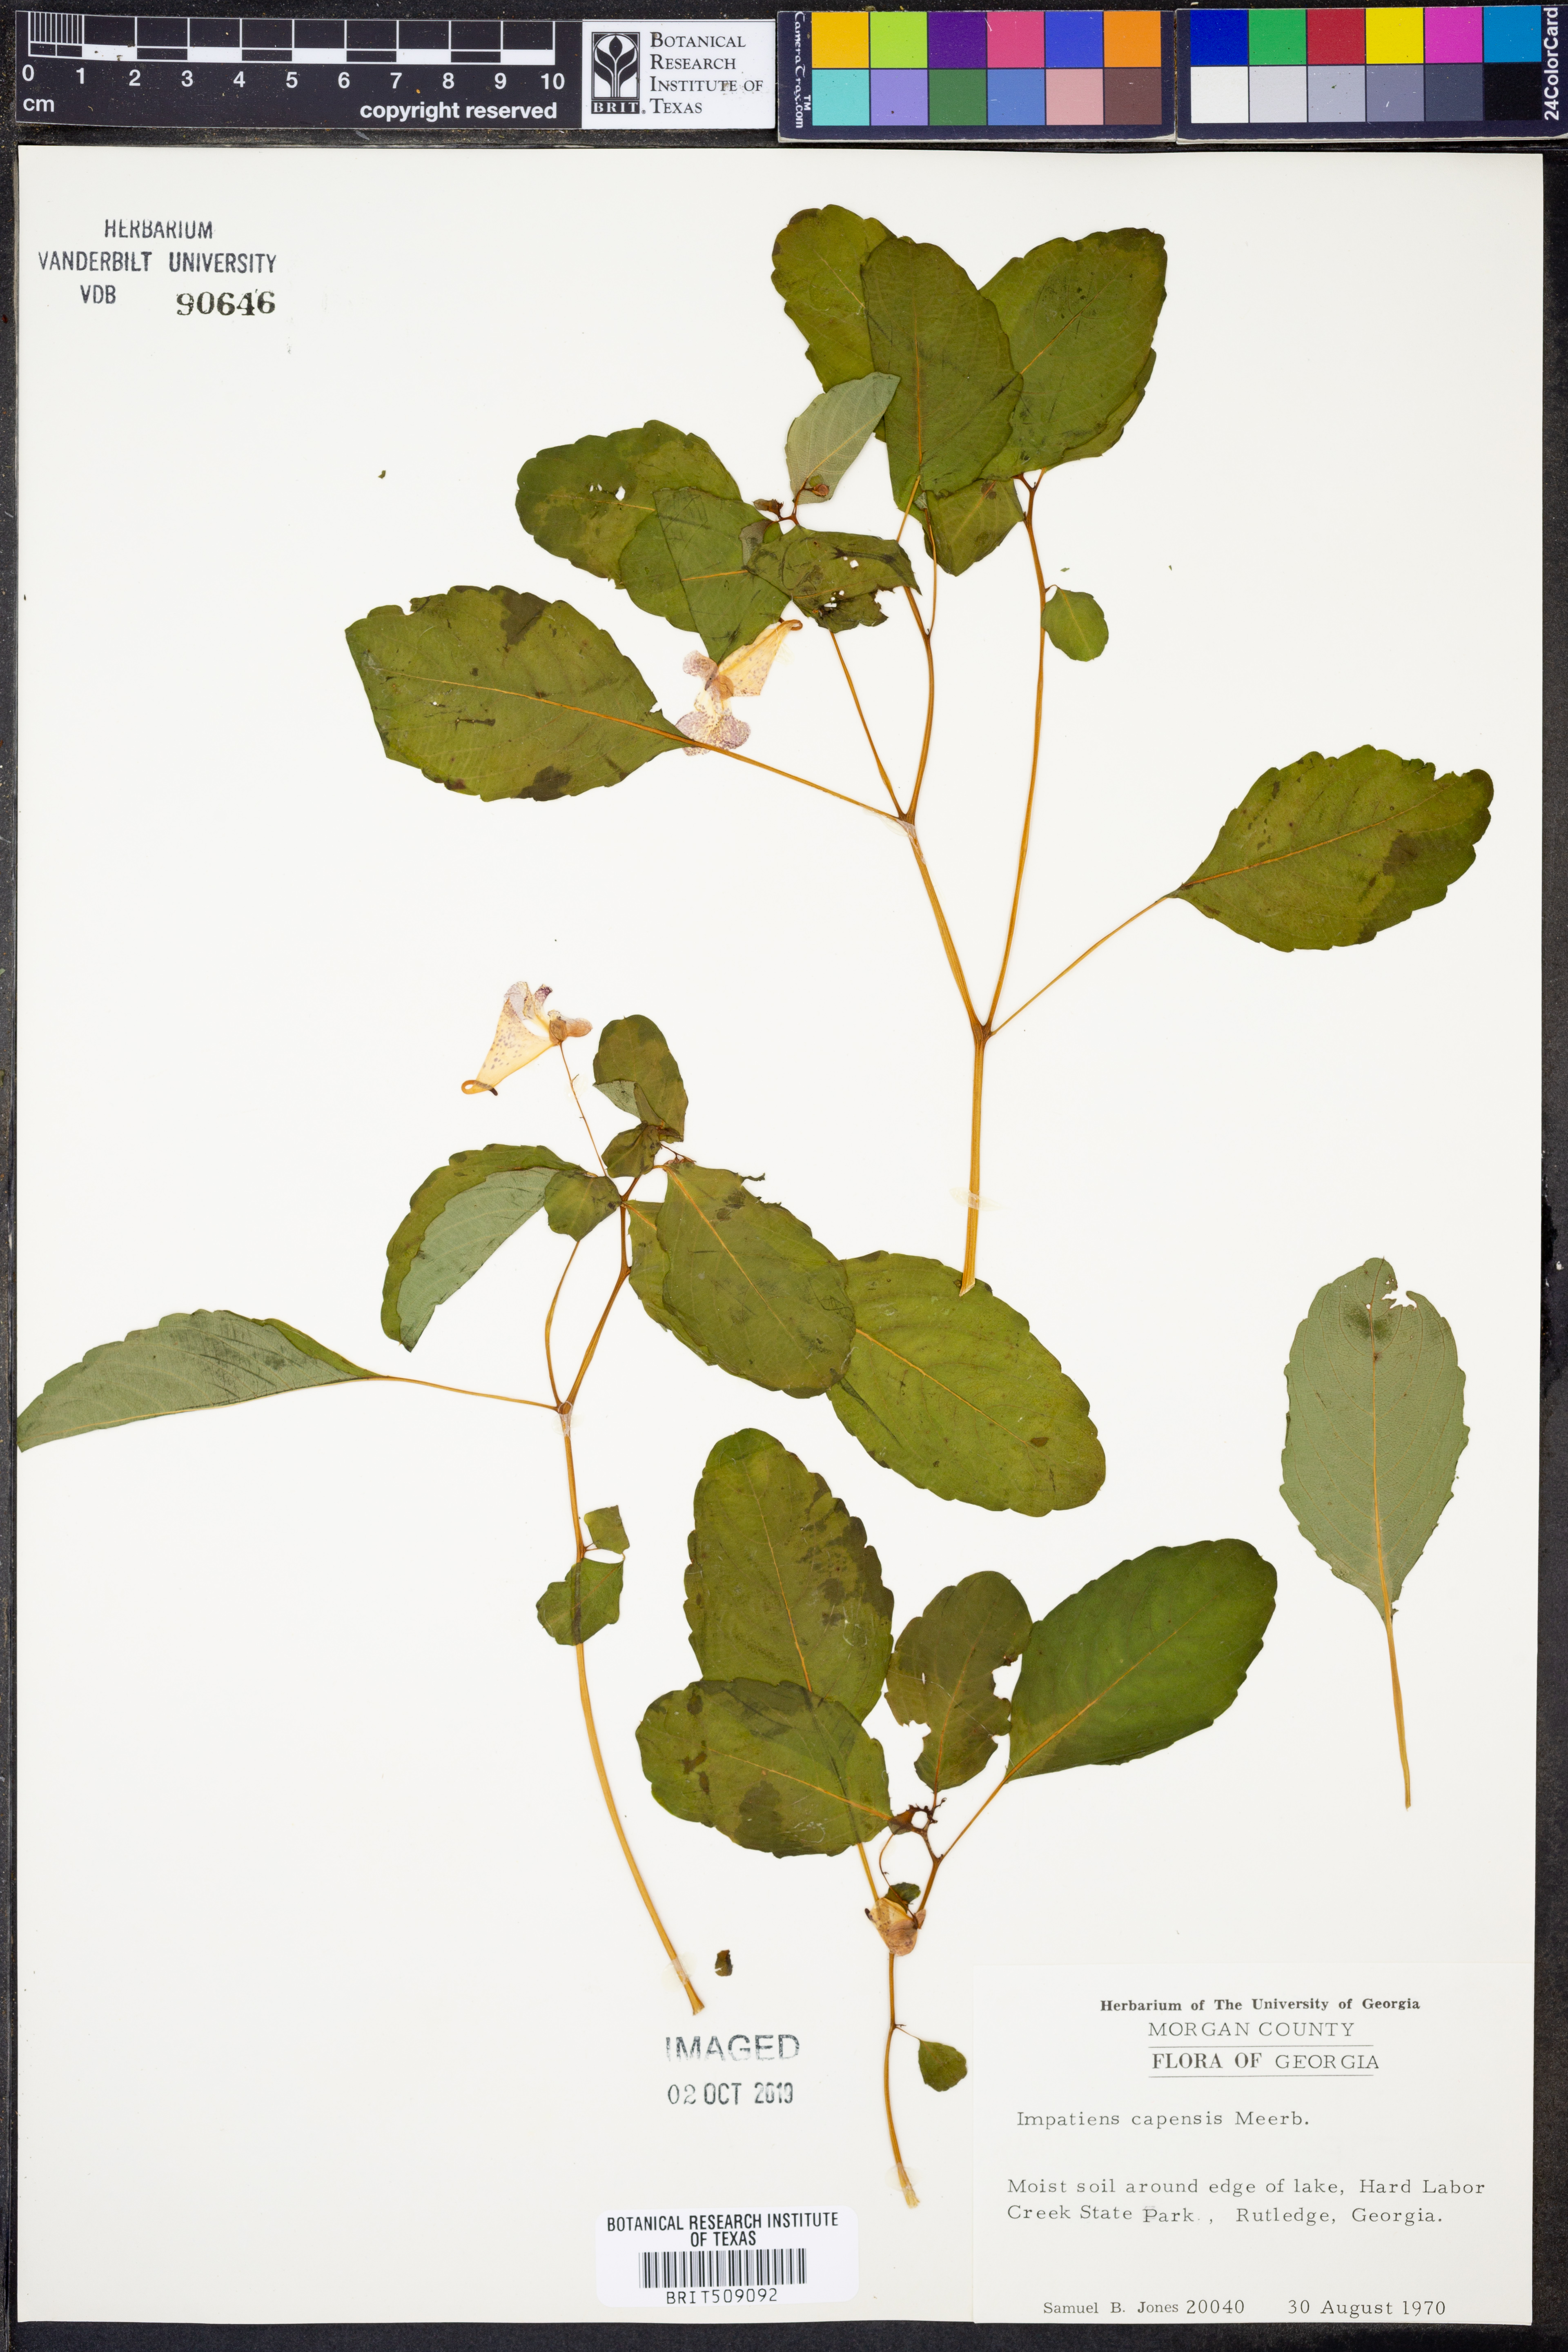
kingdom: Plantae
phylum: Tracheophyta
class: Magnoliopsida
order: Ericales
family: Balsaminaceae
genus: Impatiens
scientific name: Impatiens capensis
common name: Orange balsam
